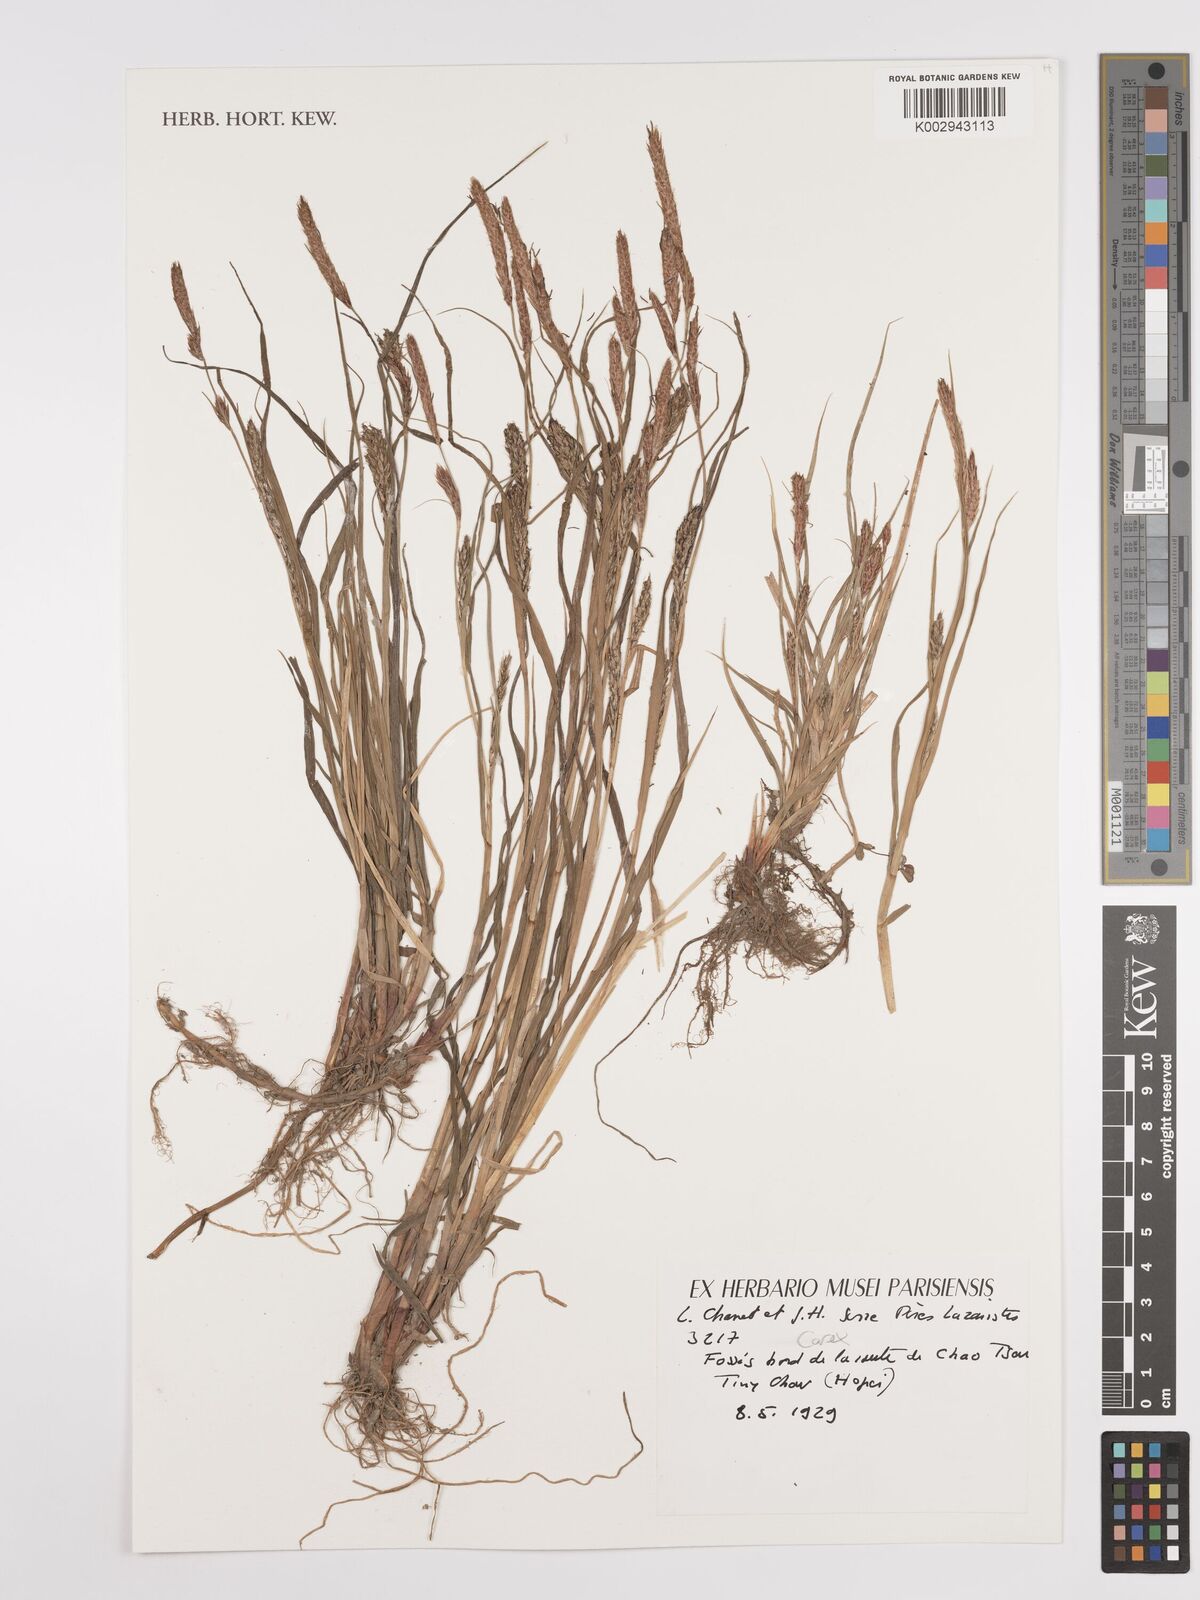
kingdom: Plantae
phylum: Tracheophyta
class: Liliopsida
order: Poales
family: Cyperaceae
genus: Carex
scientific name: Carex
